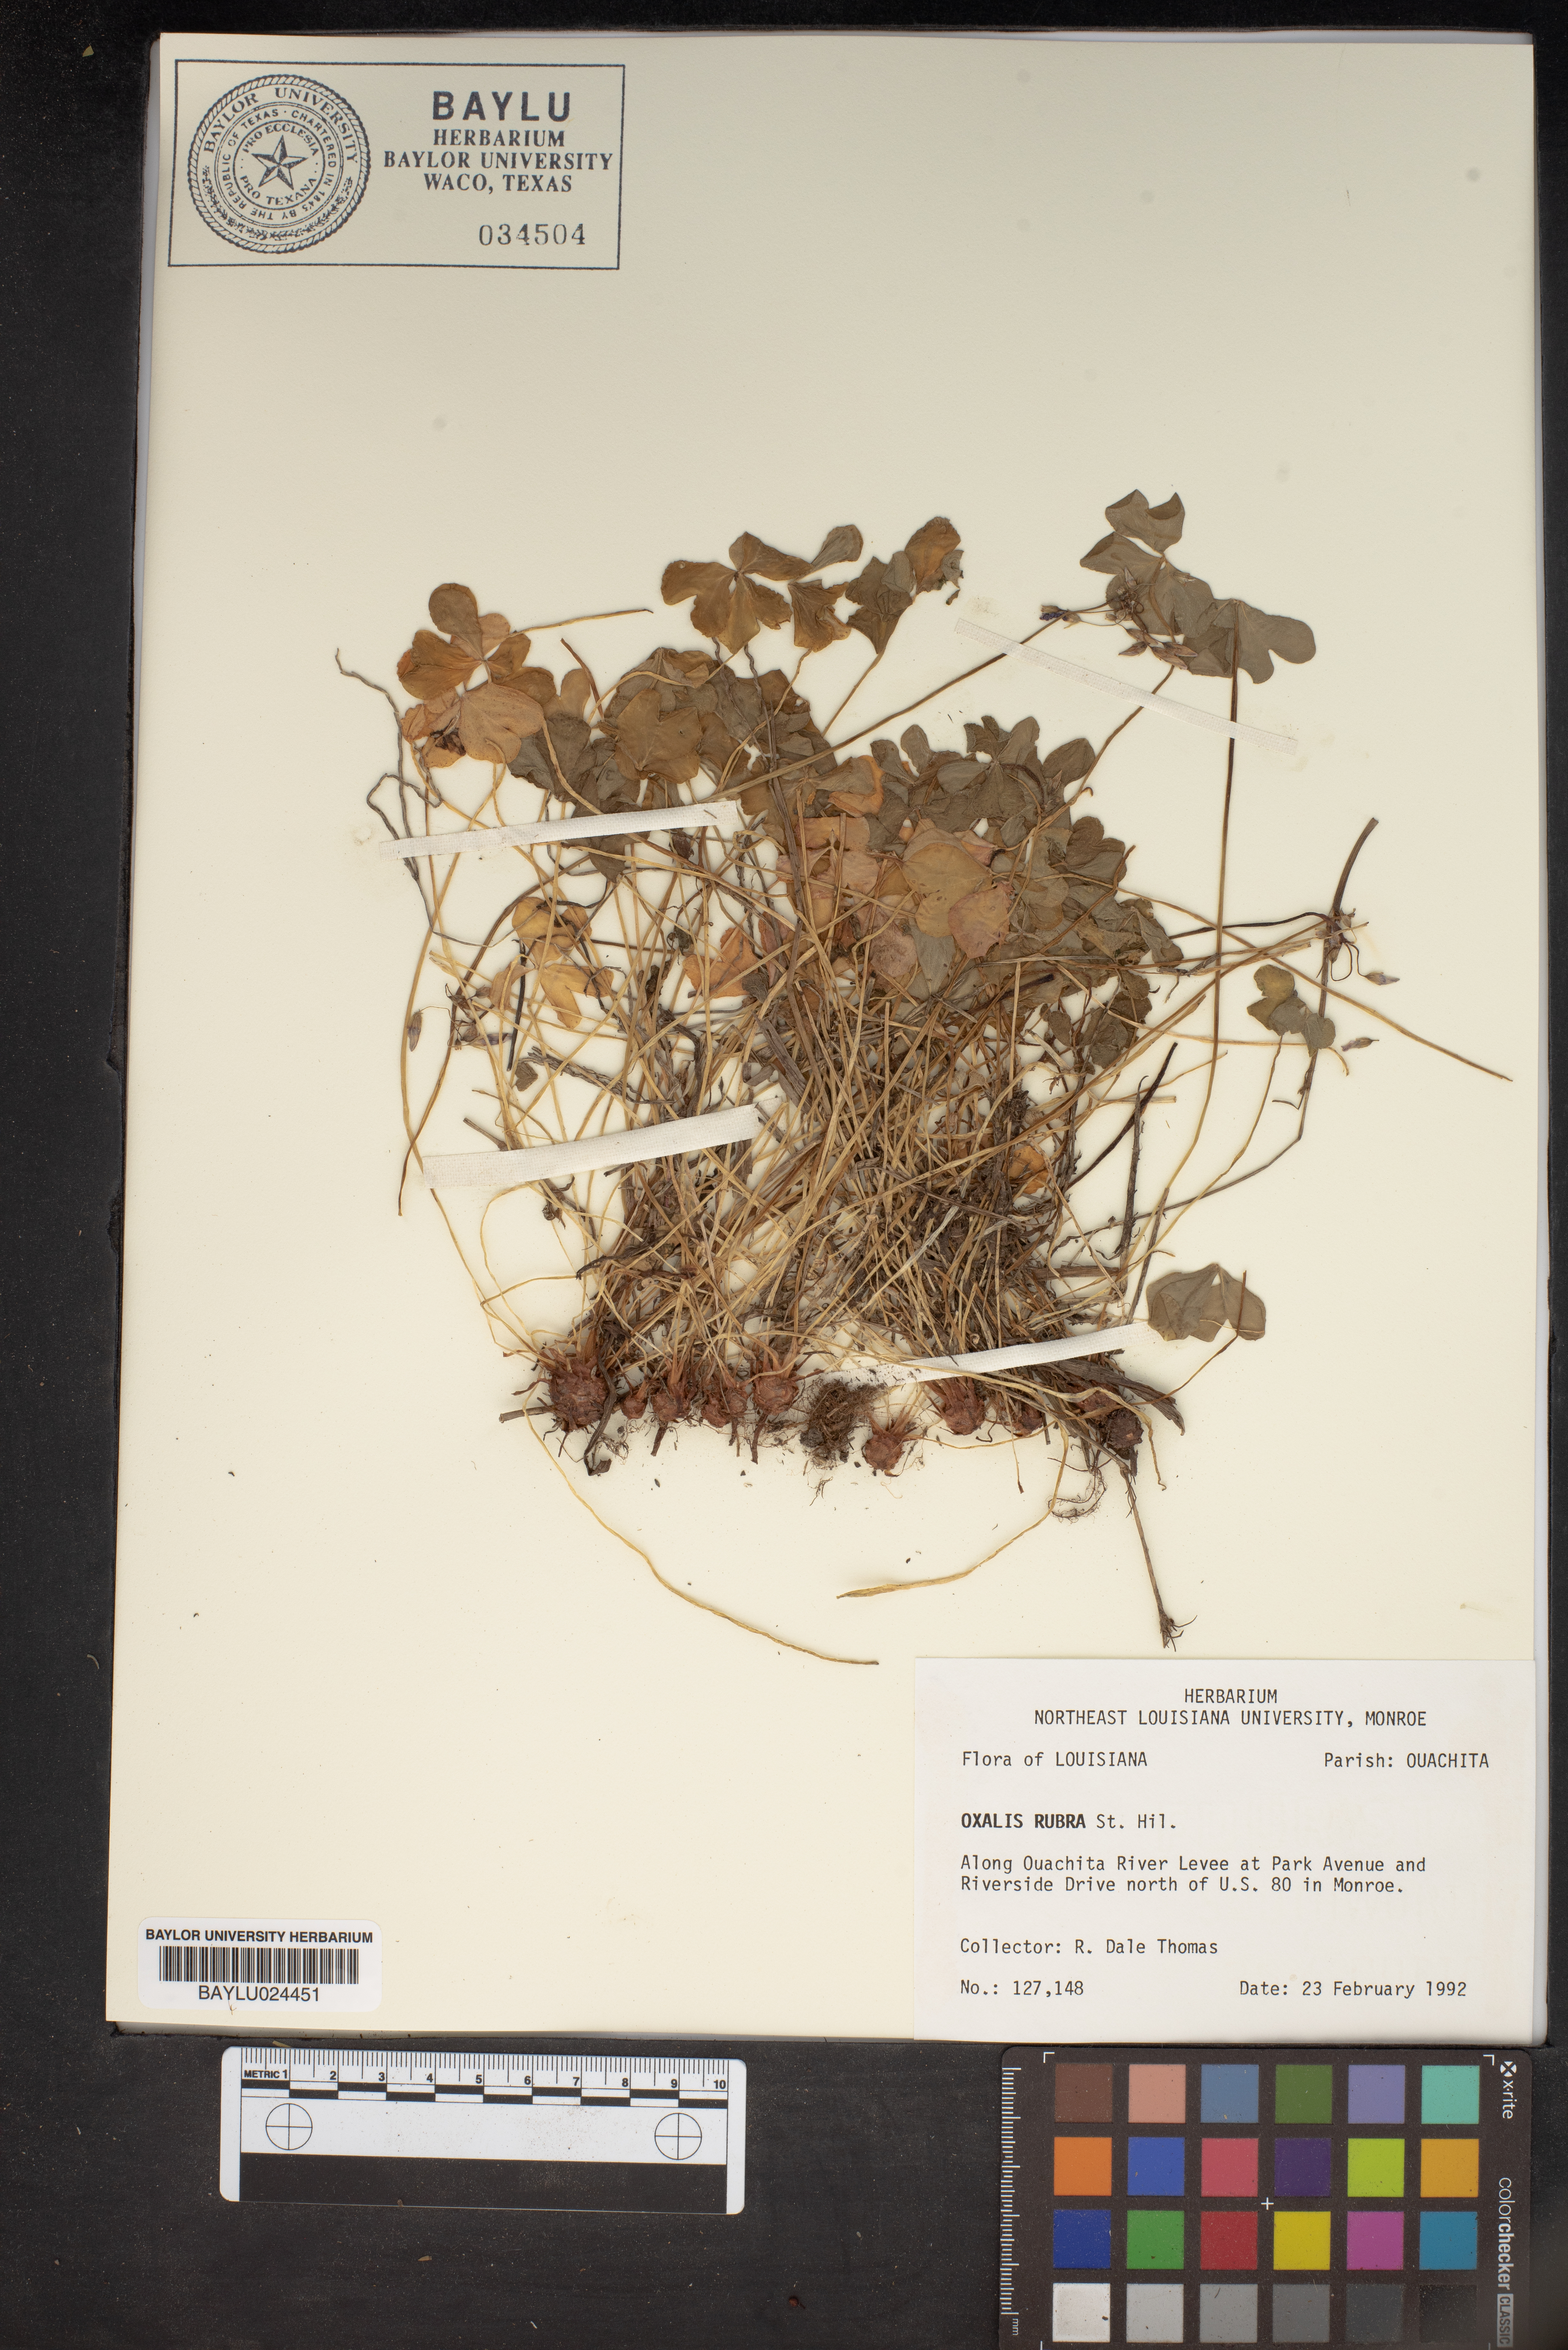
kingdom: Plantae
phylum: Tracheophyta
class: Magnoliopsida
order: Oxalidales
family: Oxalidaceae
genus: Oxalis
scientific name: Oxalis articulata
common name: Pink-sorrel
